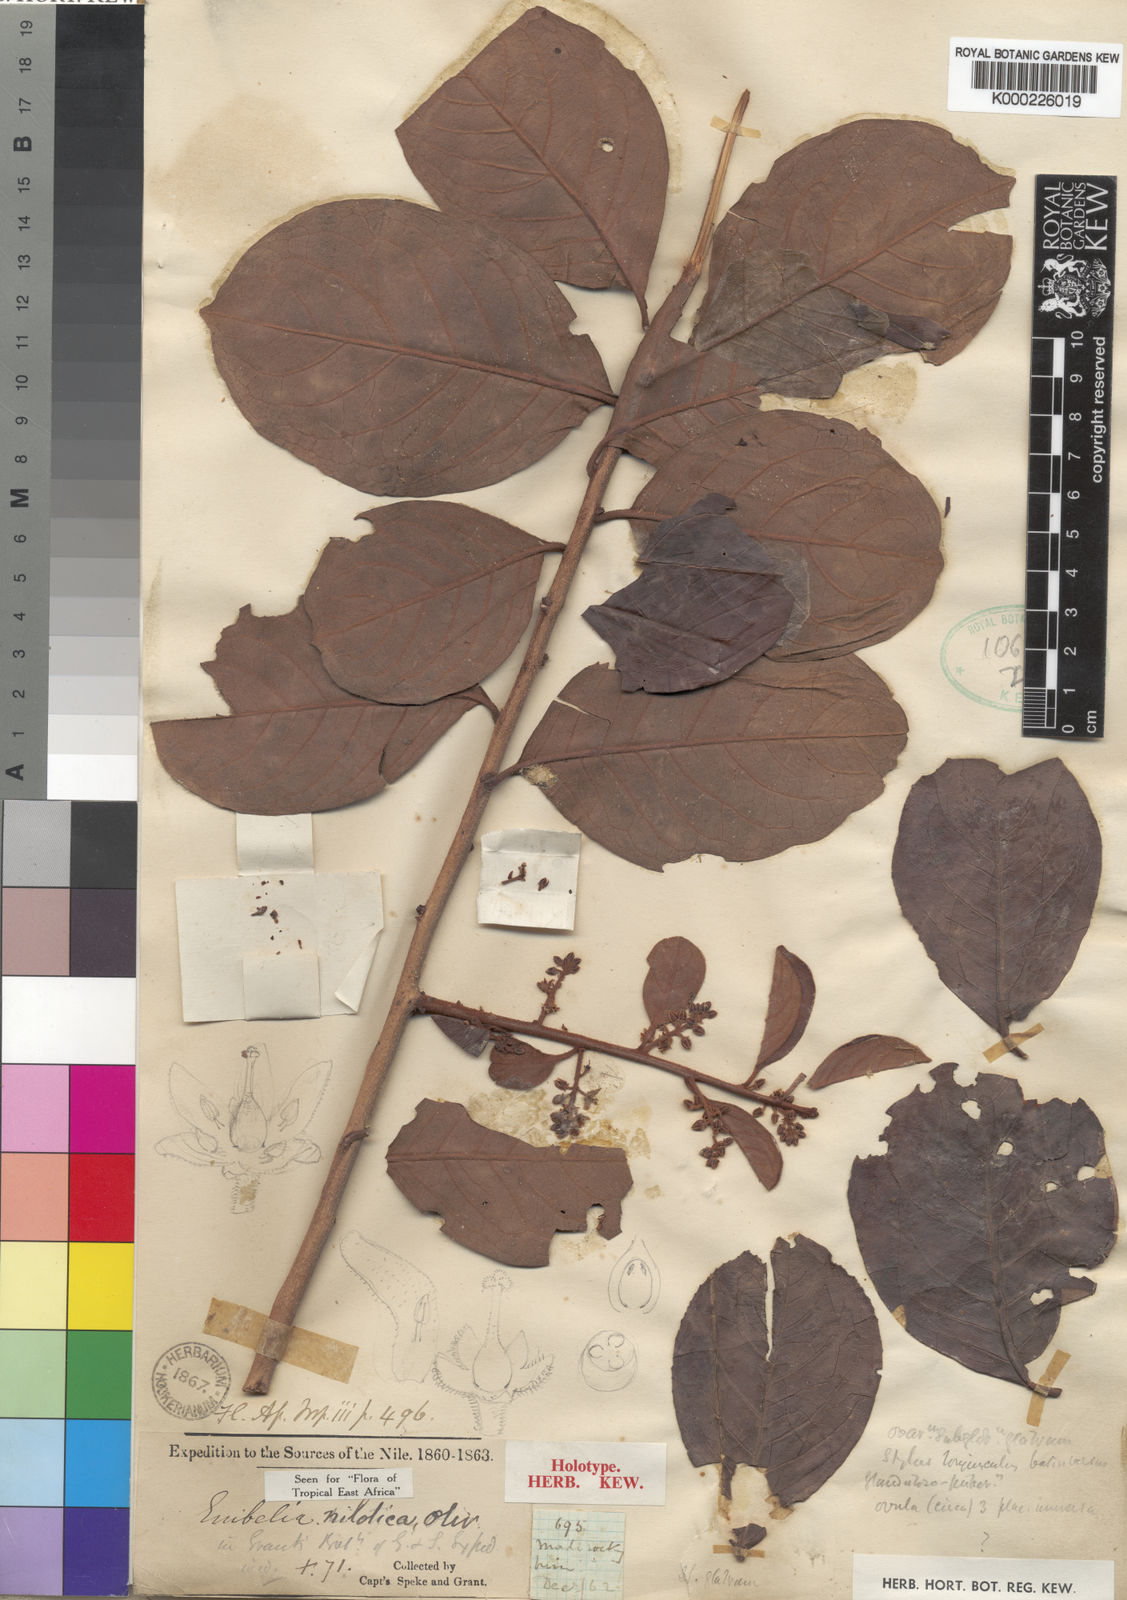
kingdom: Plantae
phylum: Tracheophyta
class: Magnoliopsida
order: Ericales
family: Primulaceae
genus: Embelia
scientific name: Embelia nilotica
